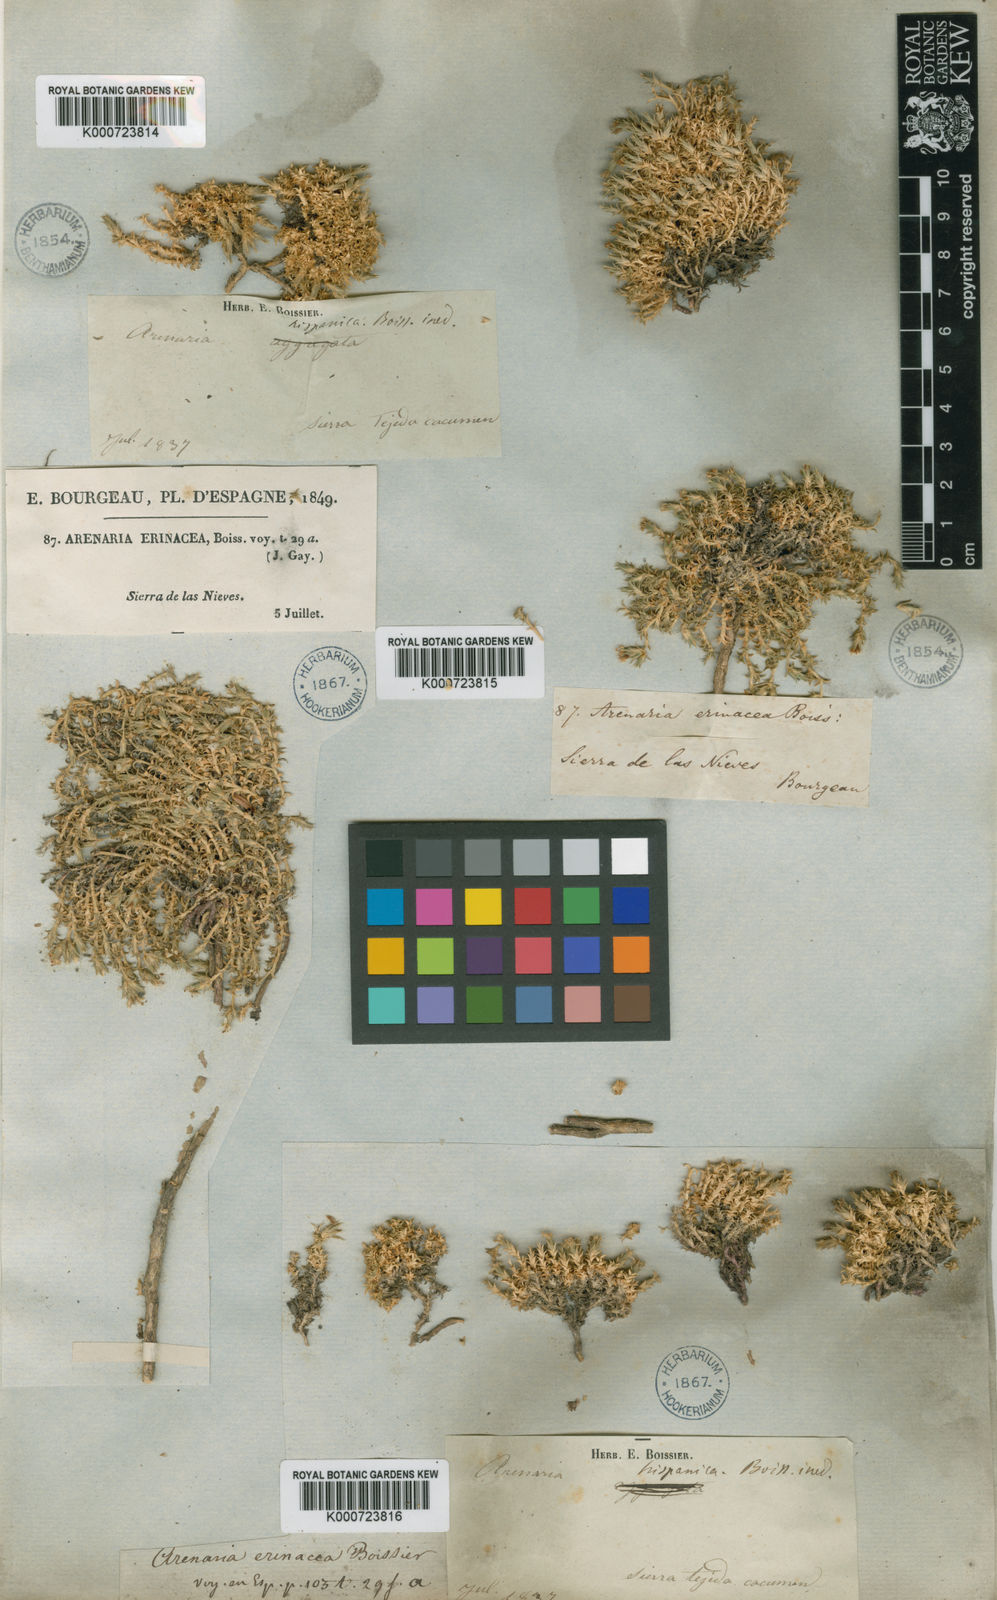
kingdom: Plantae
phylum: Tracheophyta
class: Magnoliopsida
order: Caryophyllales
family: Caryophyllaceae
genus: Arenaria
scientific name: Arenaria aggregata
